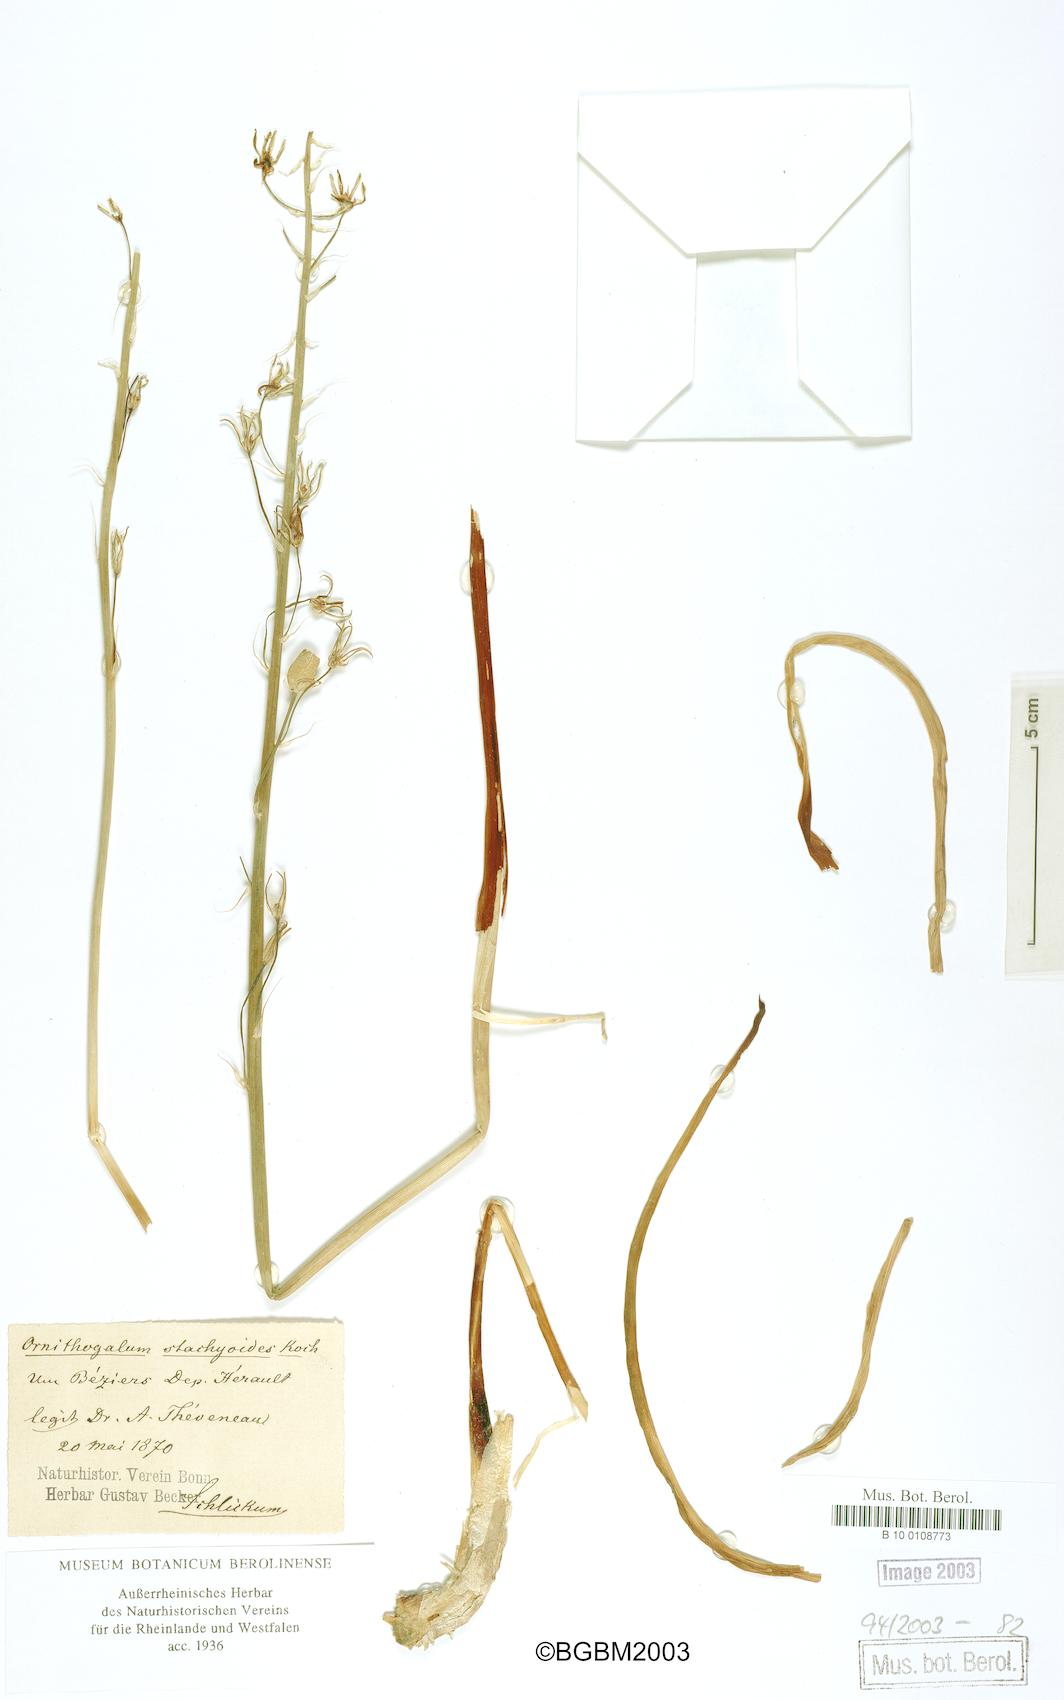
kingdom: Plantae
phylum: Tracheophyta
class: Liliopsida
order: Asparagales
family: Asparagaceae
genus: Ornithogalum
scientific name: Ornithogalum stachyoides
